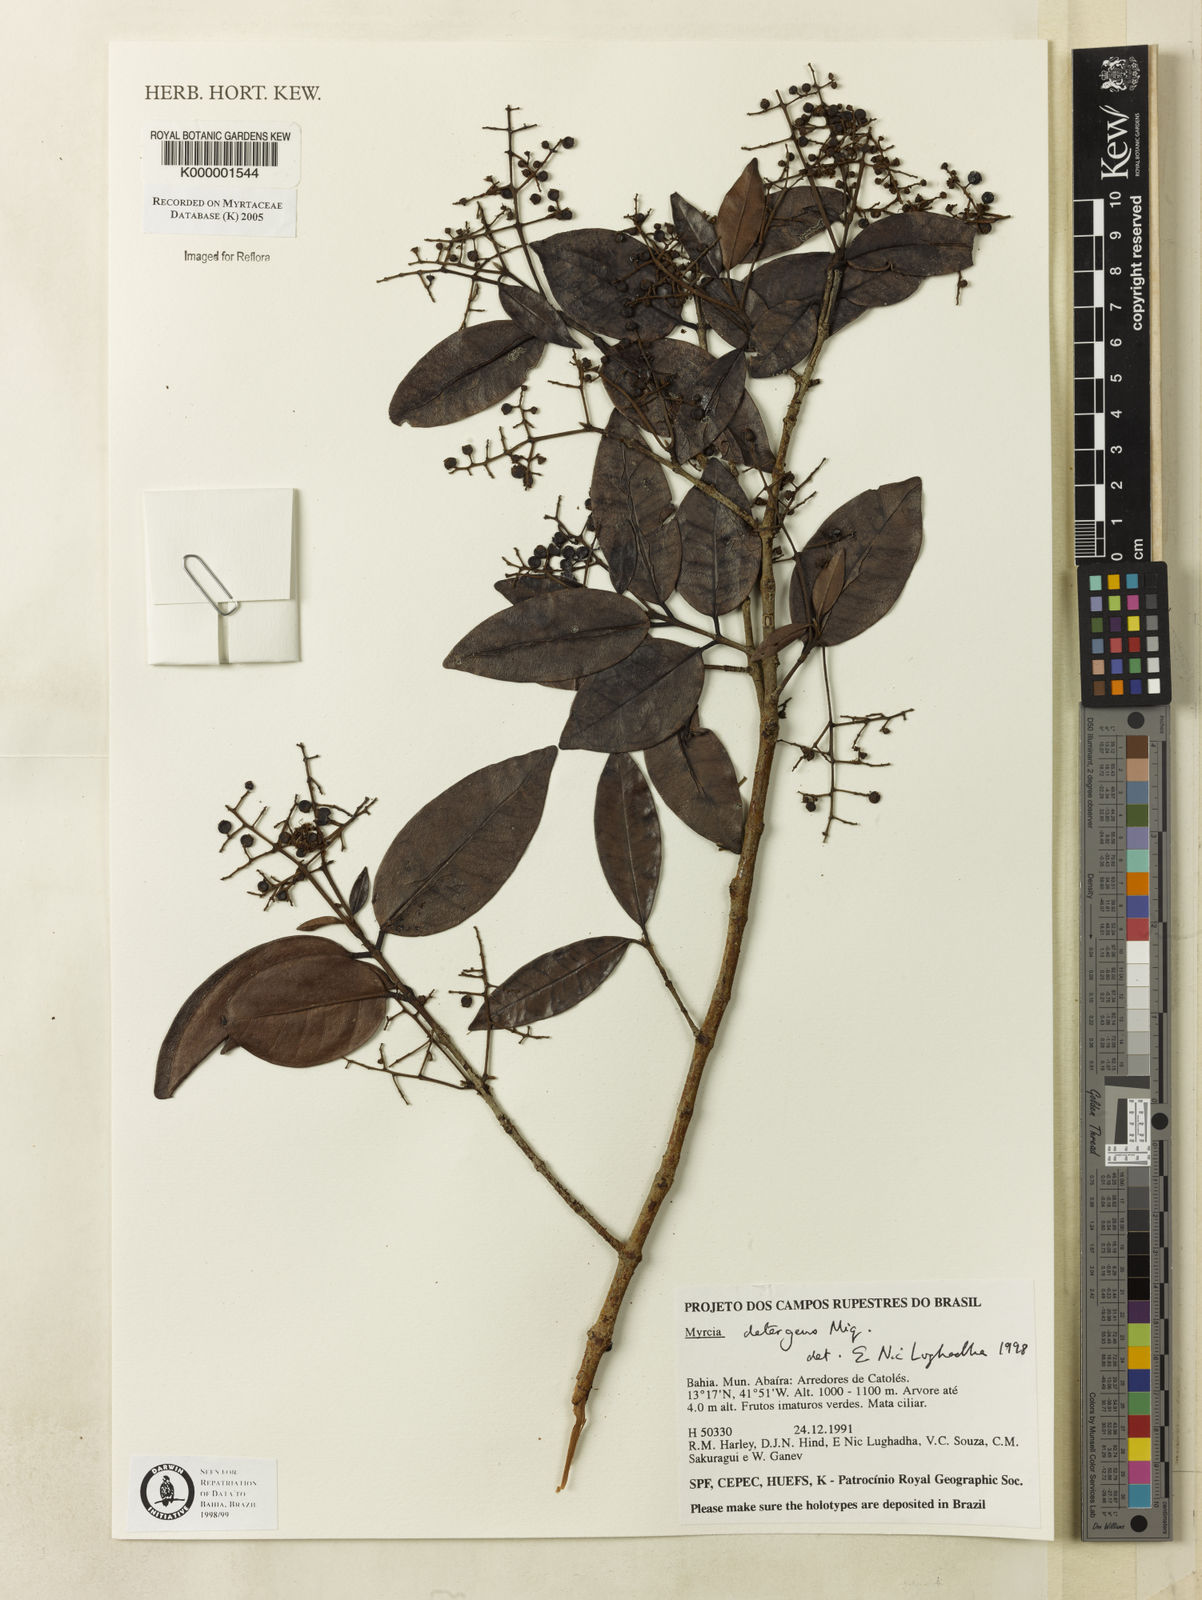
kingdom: Plantae
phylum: Tracheophyta
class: Magnoliopsida
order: Myrtales
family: Myrtaceae
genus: Myrcia
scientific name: Myrcia amazonica
